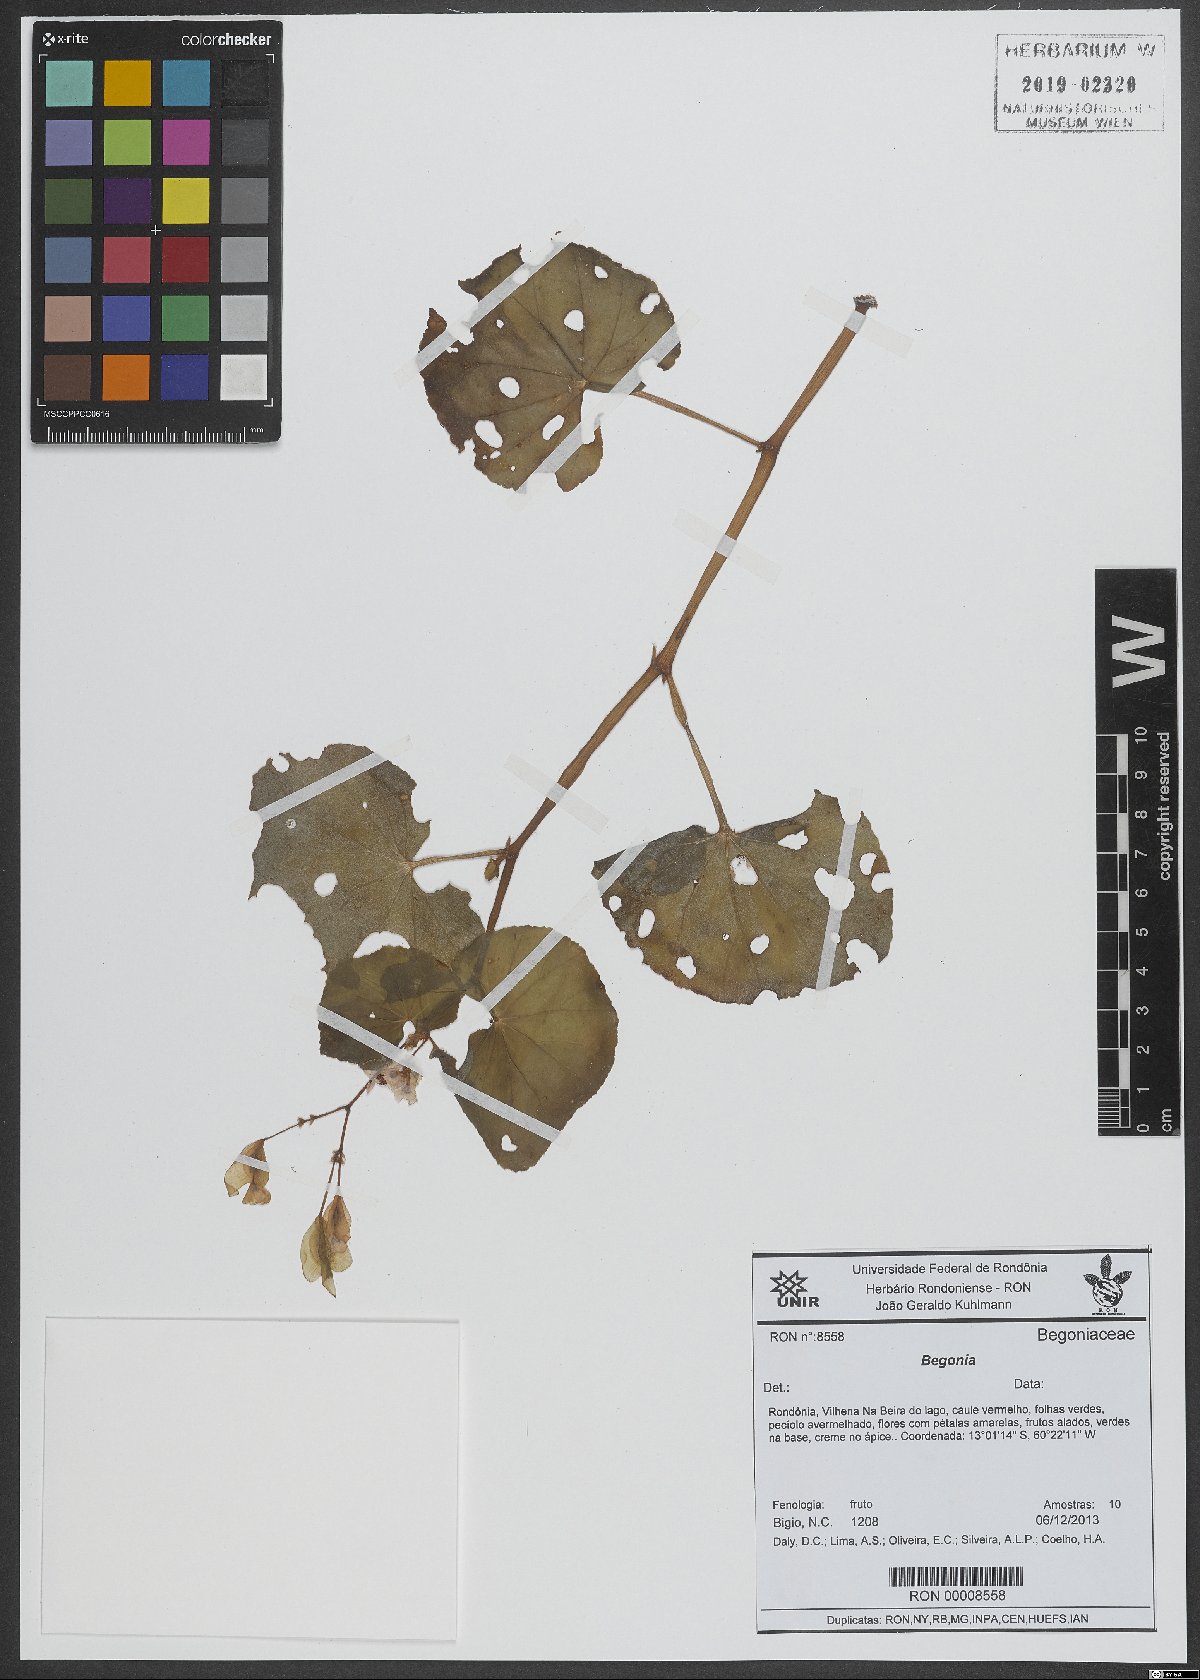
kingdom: Plantae
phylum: Tracheophyta
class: Magnoliopsida
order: Cucurbitales
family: Begoniaceae
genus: Begonia
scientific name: Begonia
